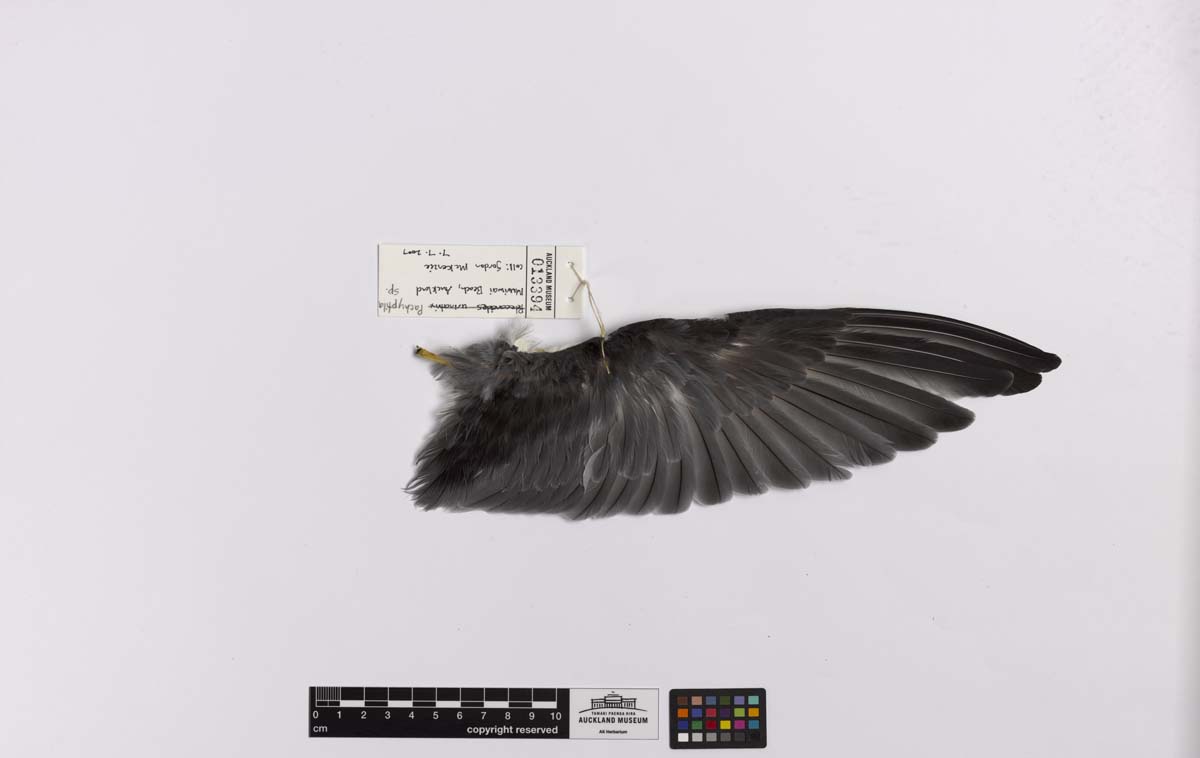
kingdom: Animalia
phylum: Chordata
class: Aves
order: Procellariiformes
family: Procellariidae
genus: Pachyptila
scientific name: Pachyptila
